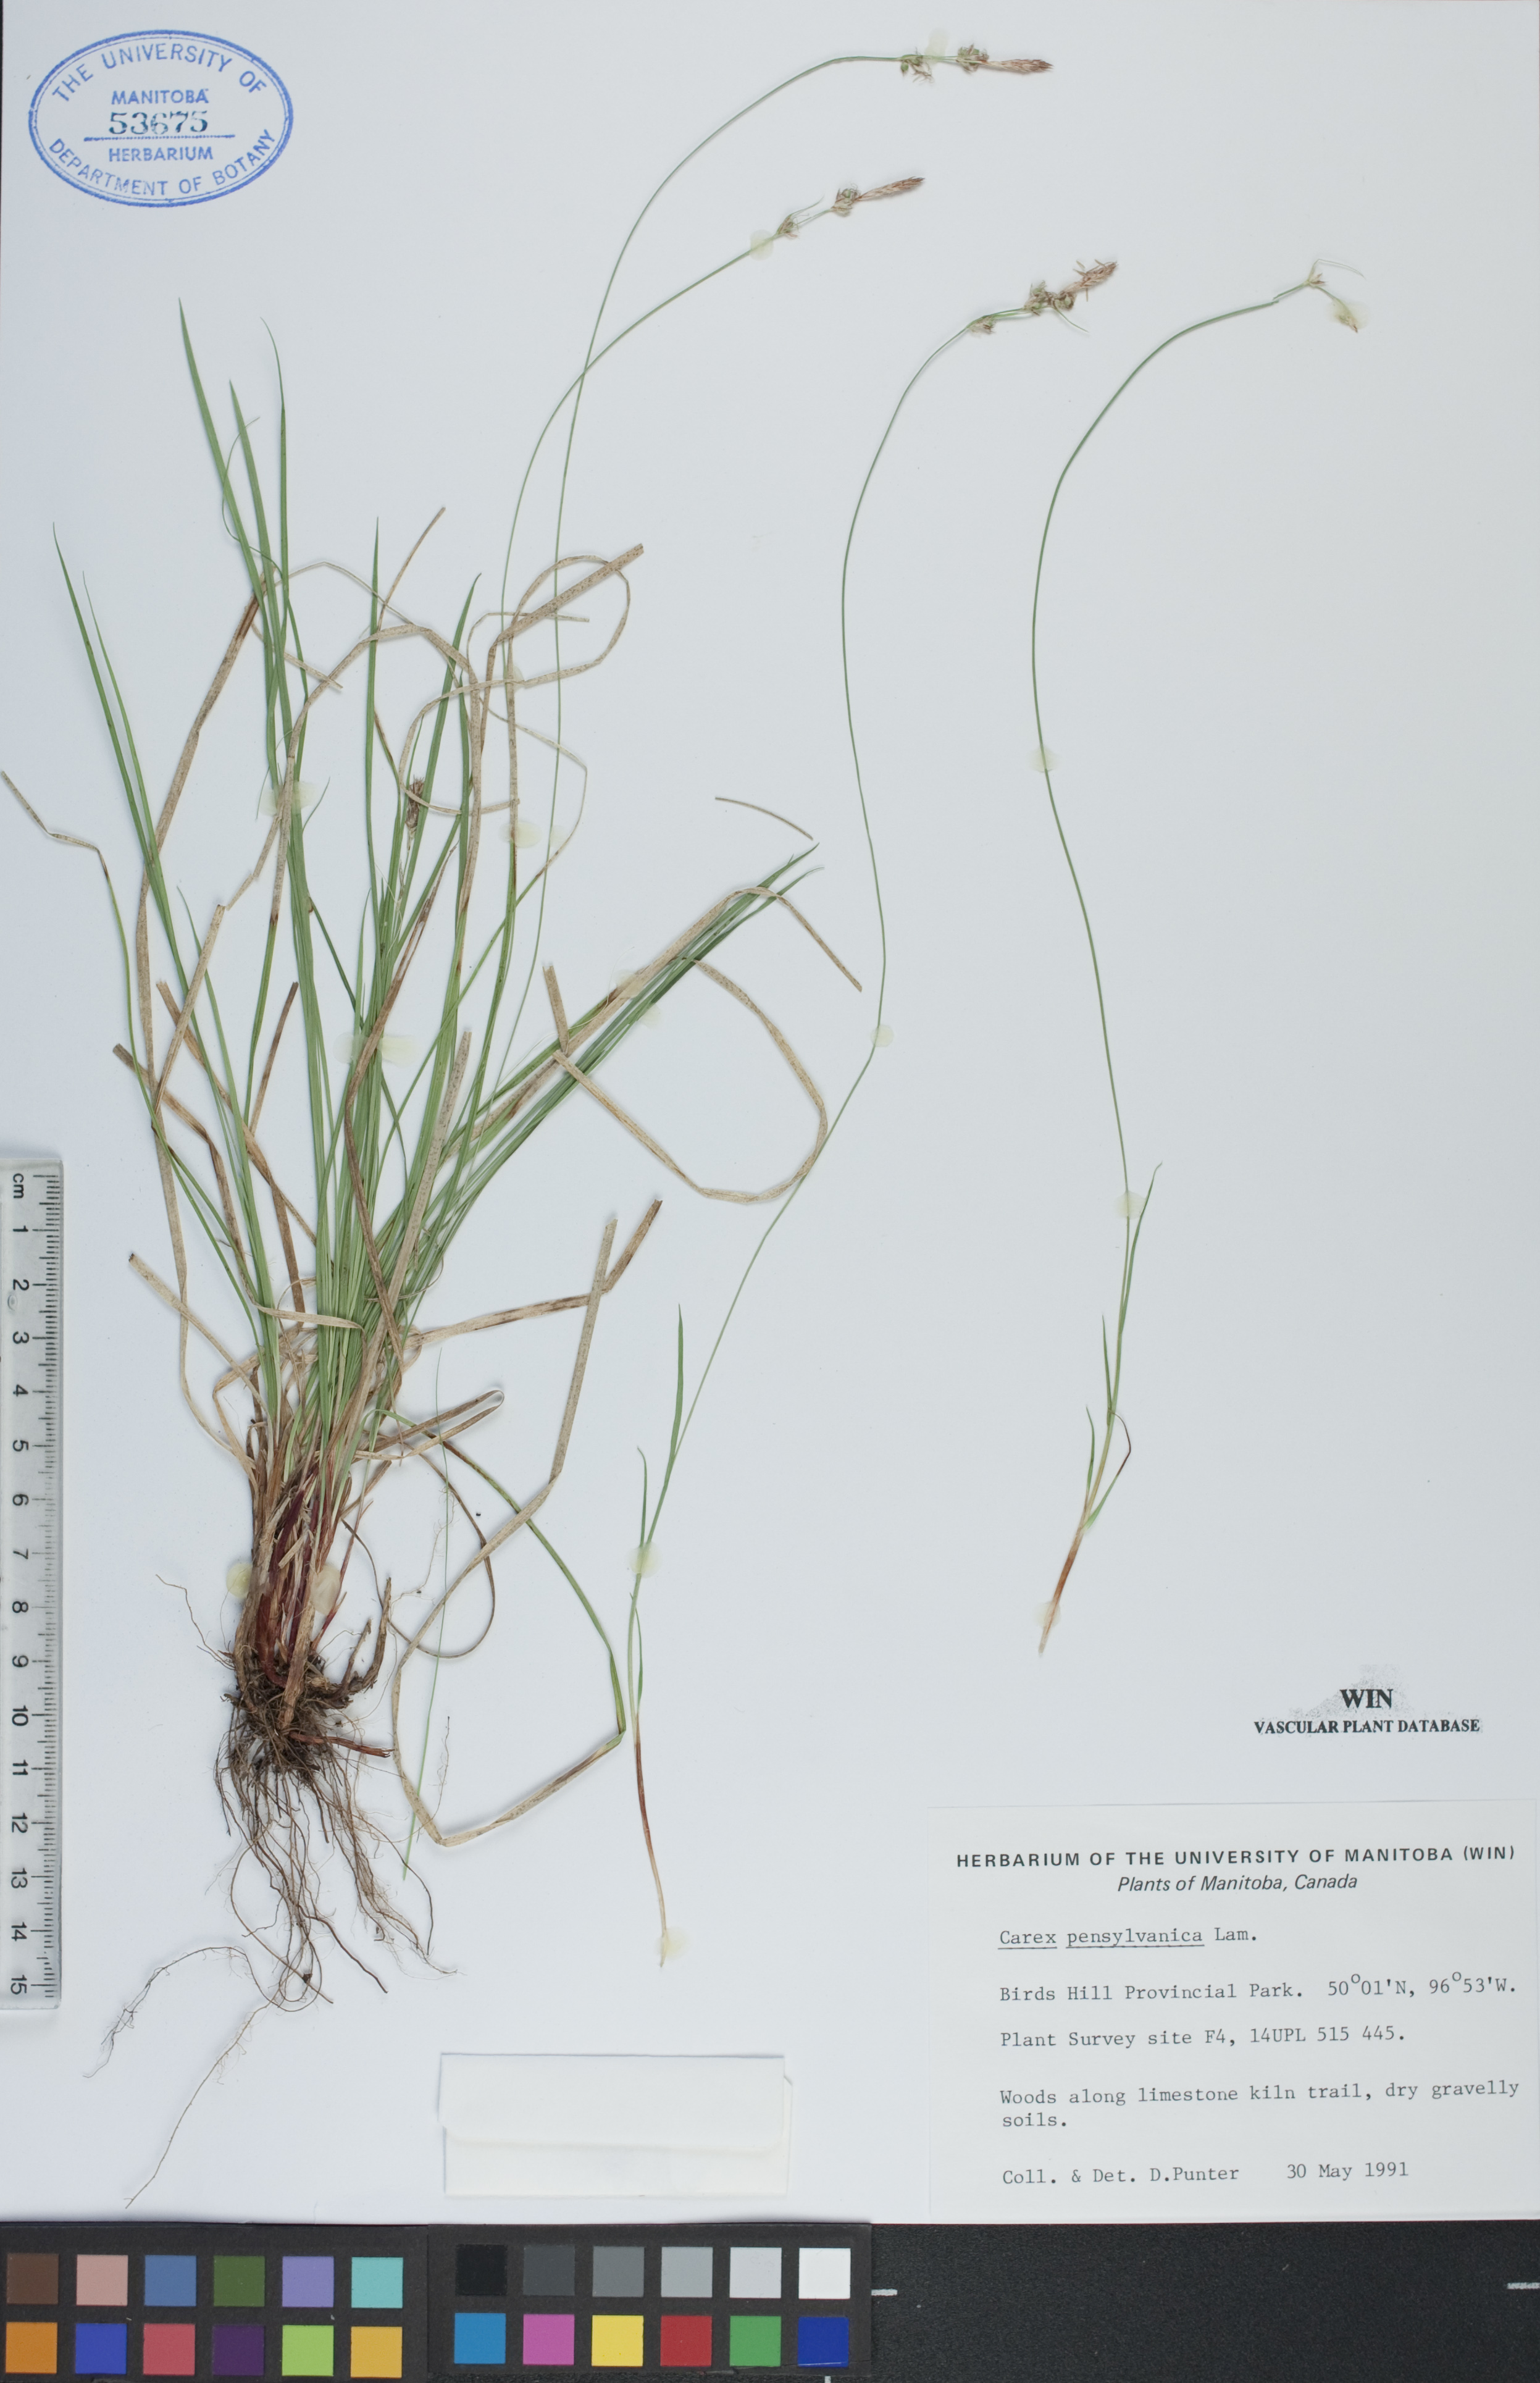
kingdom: Plantae
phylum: Tracheophyta
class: Liliopsida
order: Poales
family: Cyperaceae
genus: Carex
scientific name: Carex pensylvanica
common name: Common oak sedge
